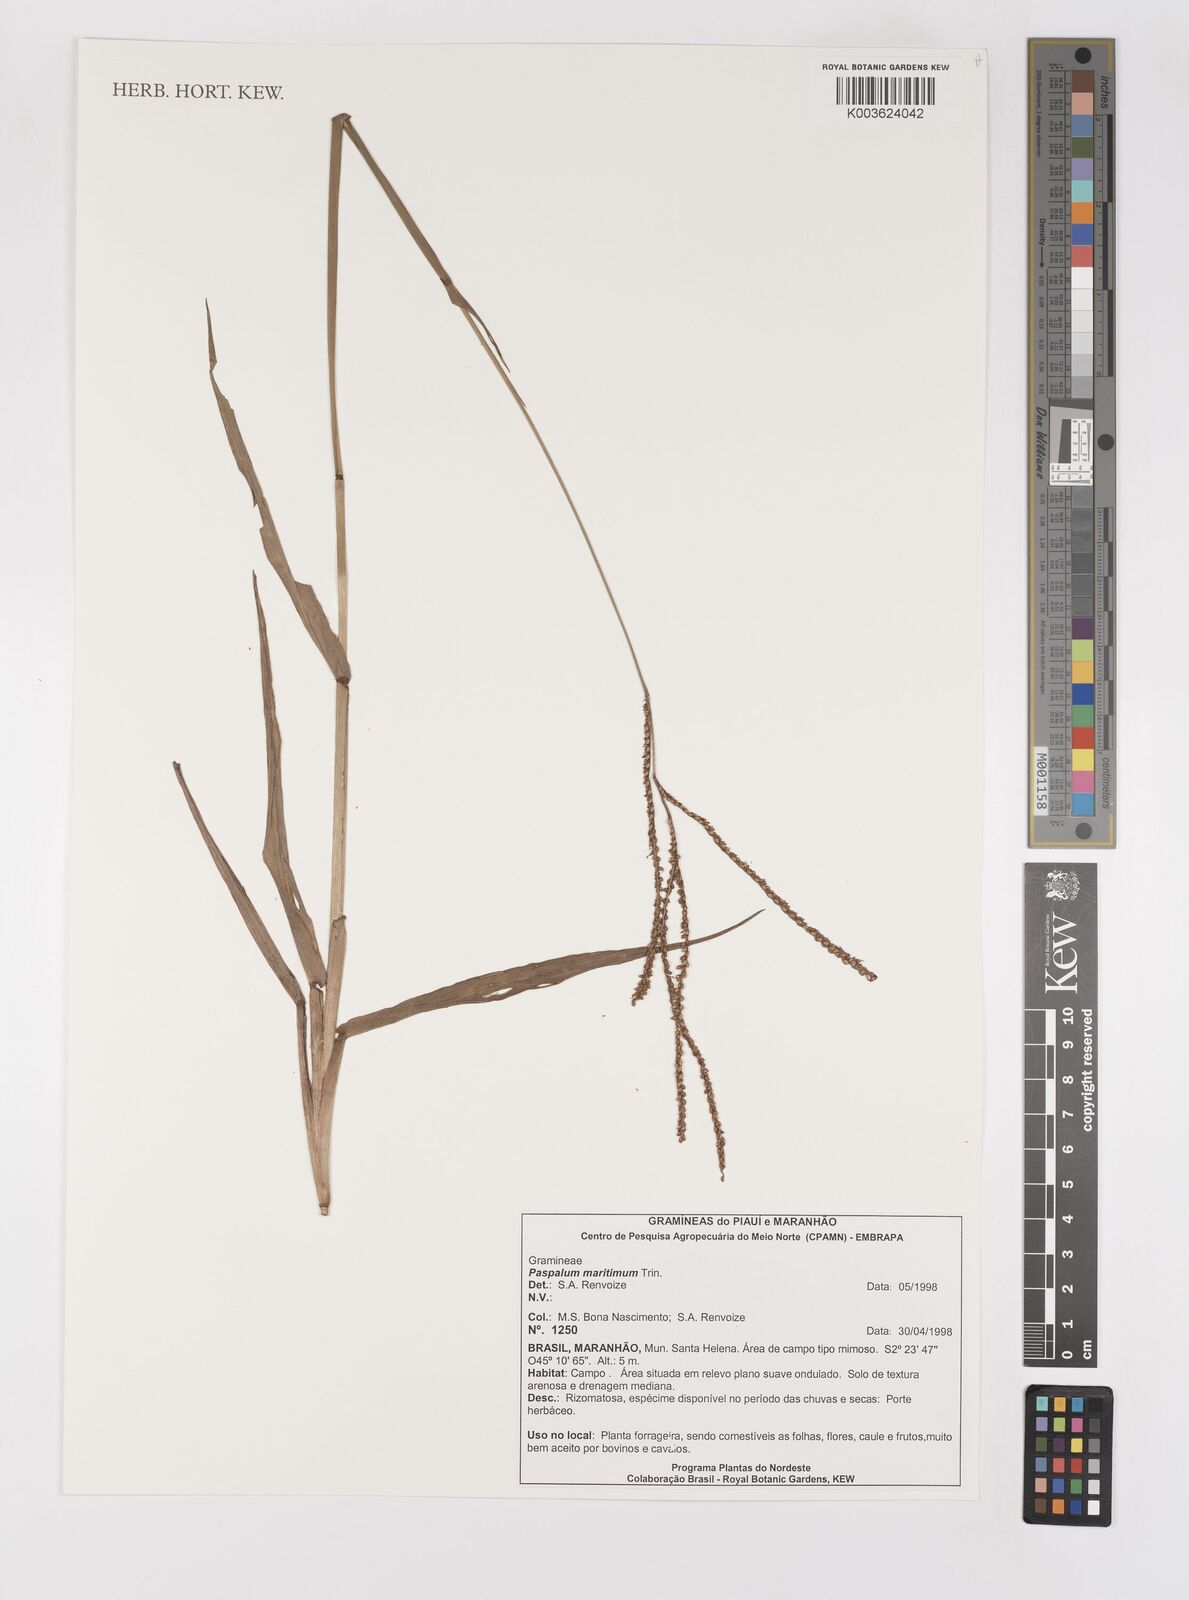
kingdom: Plantae
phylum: Tracheophyta
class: Liliopsida
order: Poales
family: Poaceae
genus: Paspalum
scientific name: Paspalum maritimum
